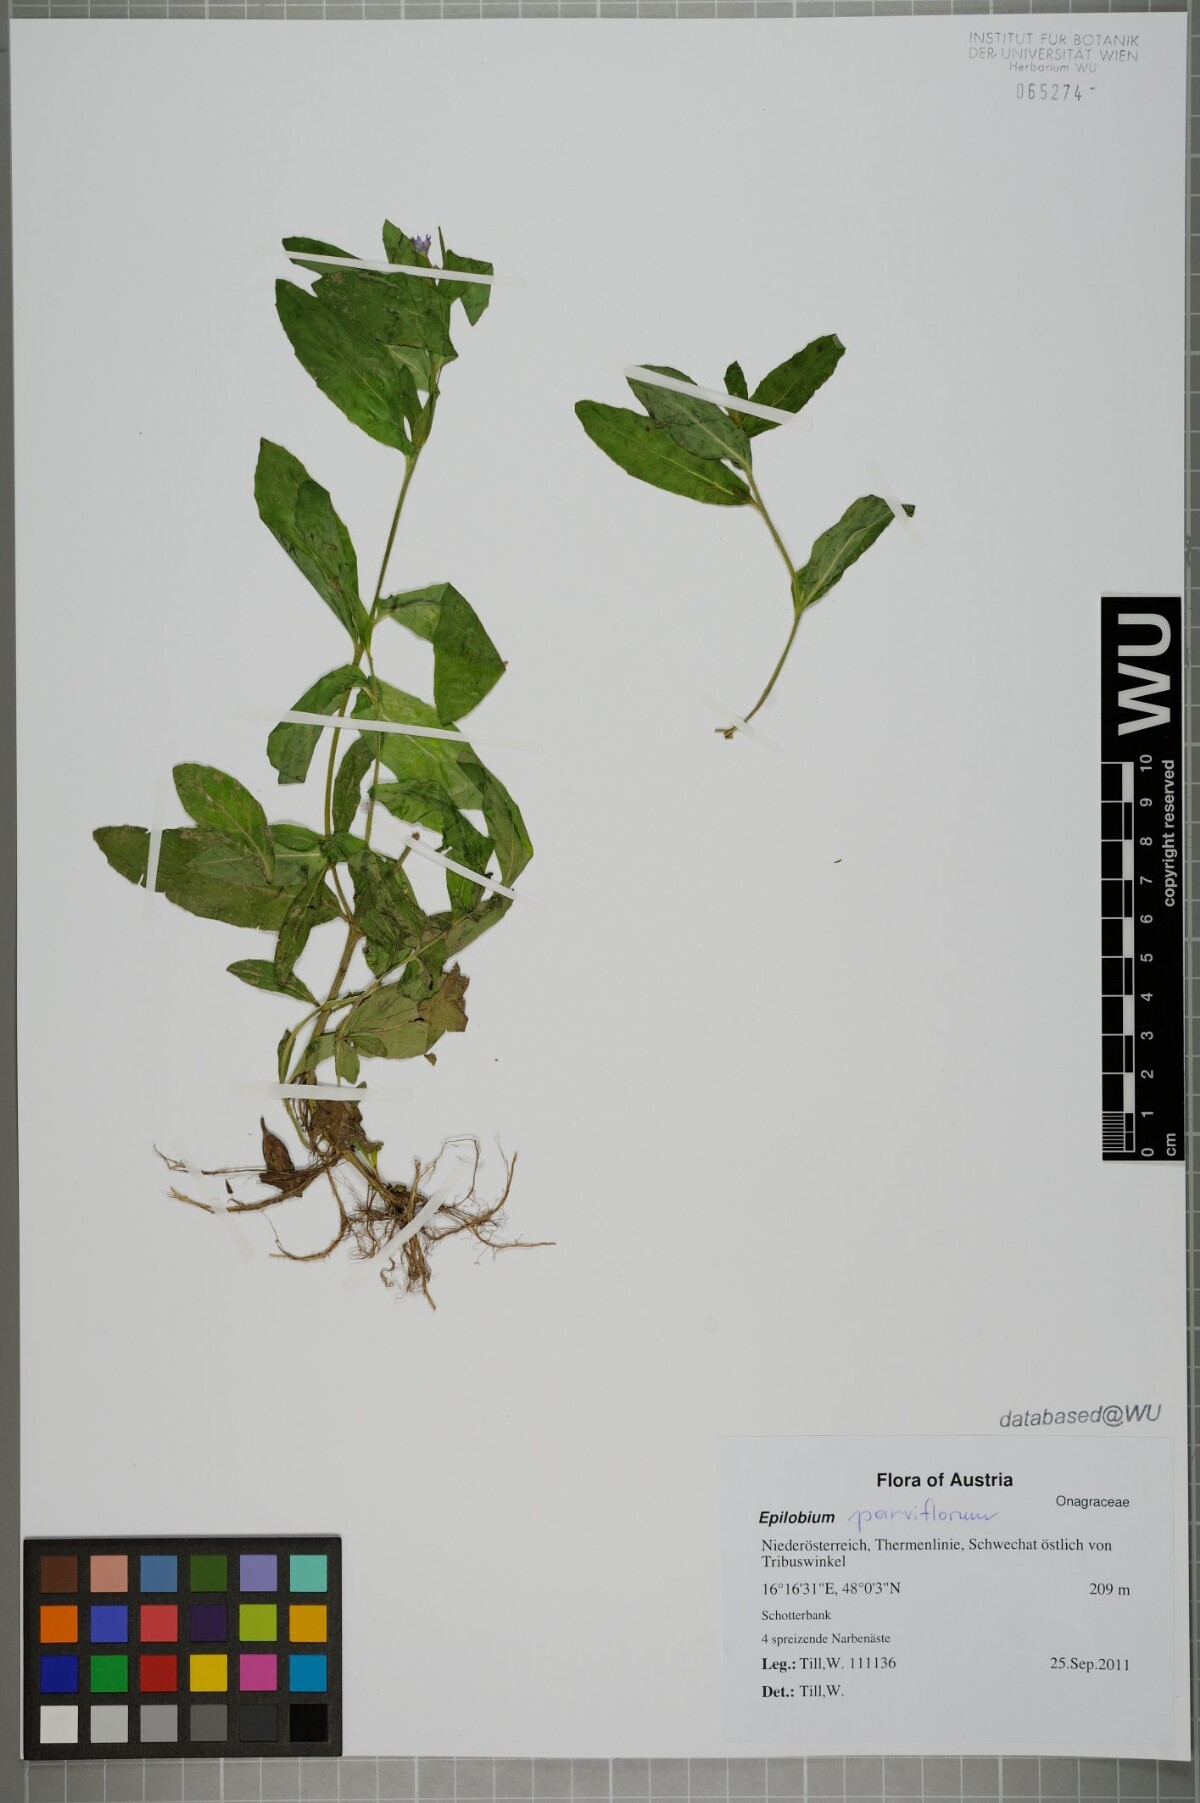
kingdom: Plantae
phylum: Tracheophyta
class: Magnoliopsida
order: Myrtales
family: Onagraceae
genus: Epilobium
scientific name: Epilobium parviflorum
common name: Hoary willowherb
